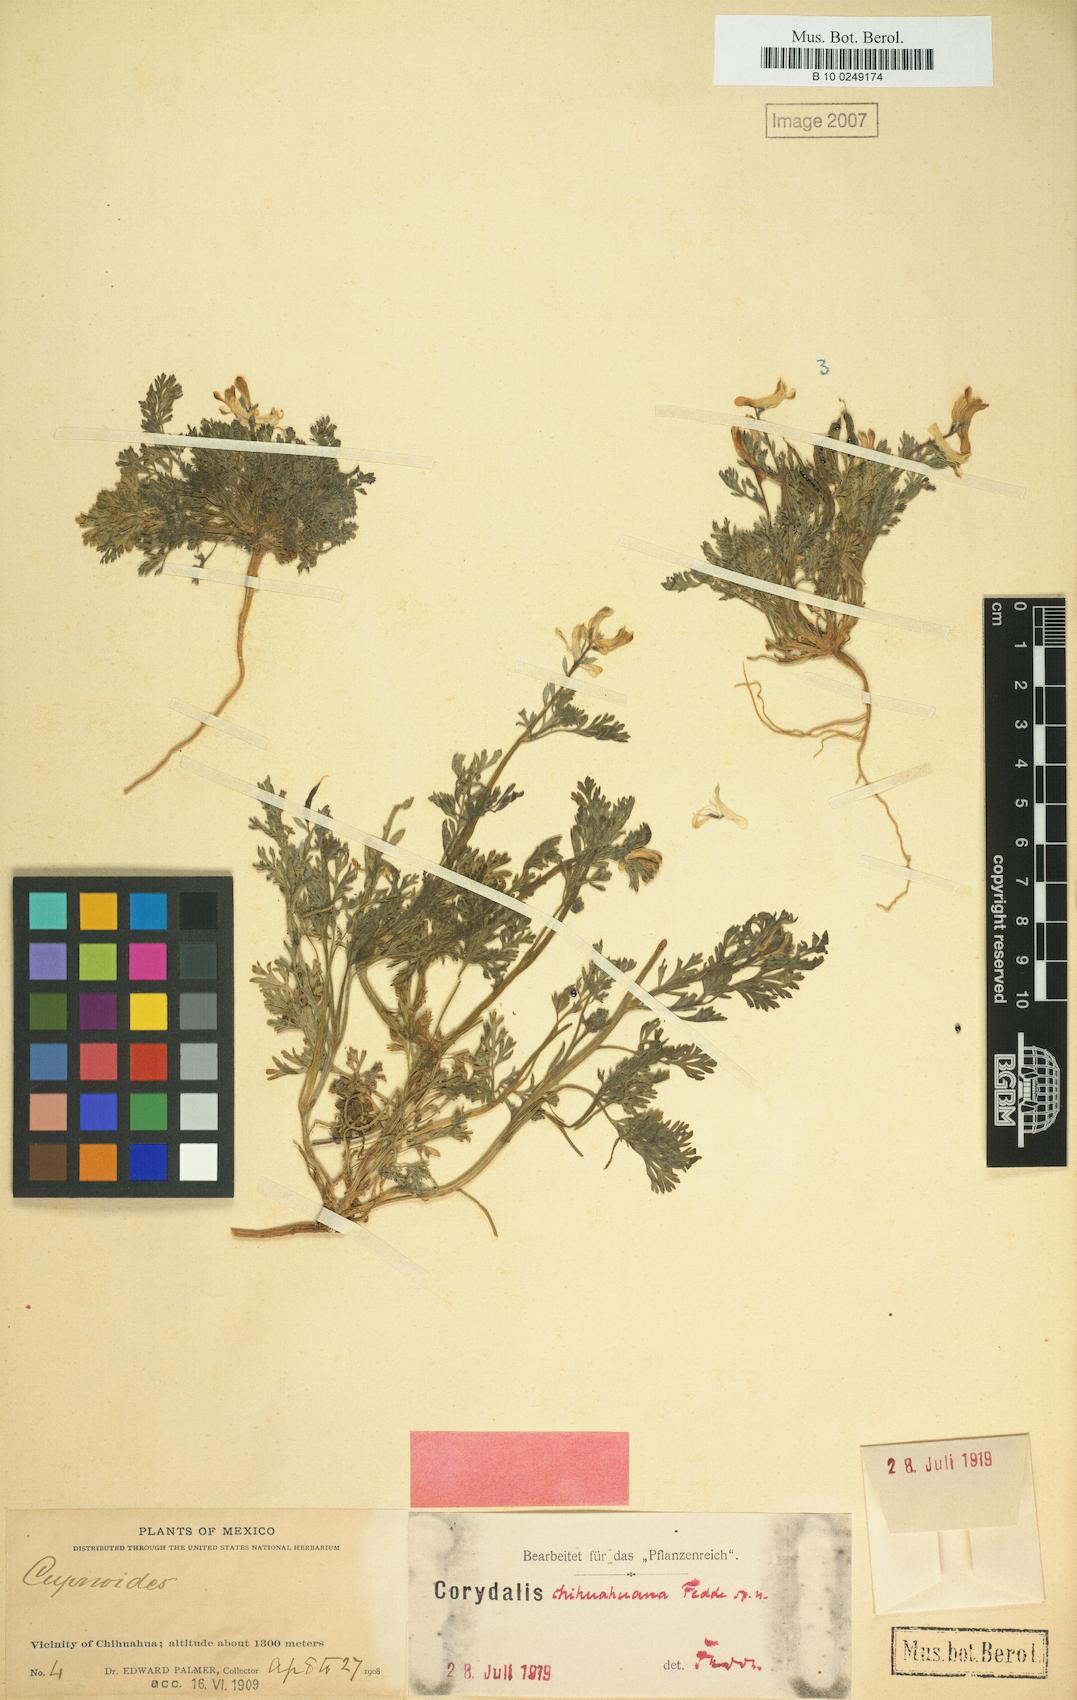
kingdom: Plantae
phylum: Tracheophyta
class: Magnoliopsida
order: Ranunculales
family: Papaveraceae
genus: Corydalis
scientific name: Corydalis chihuahuana
